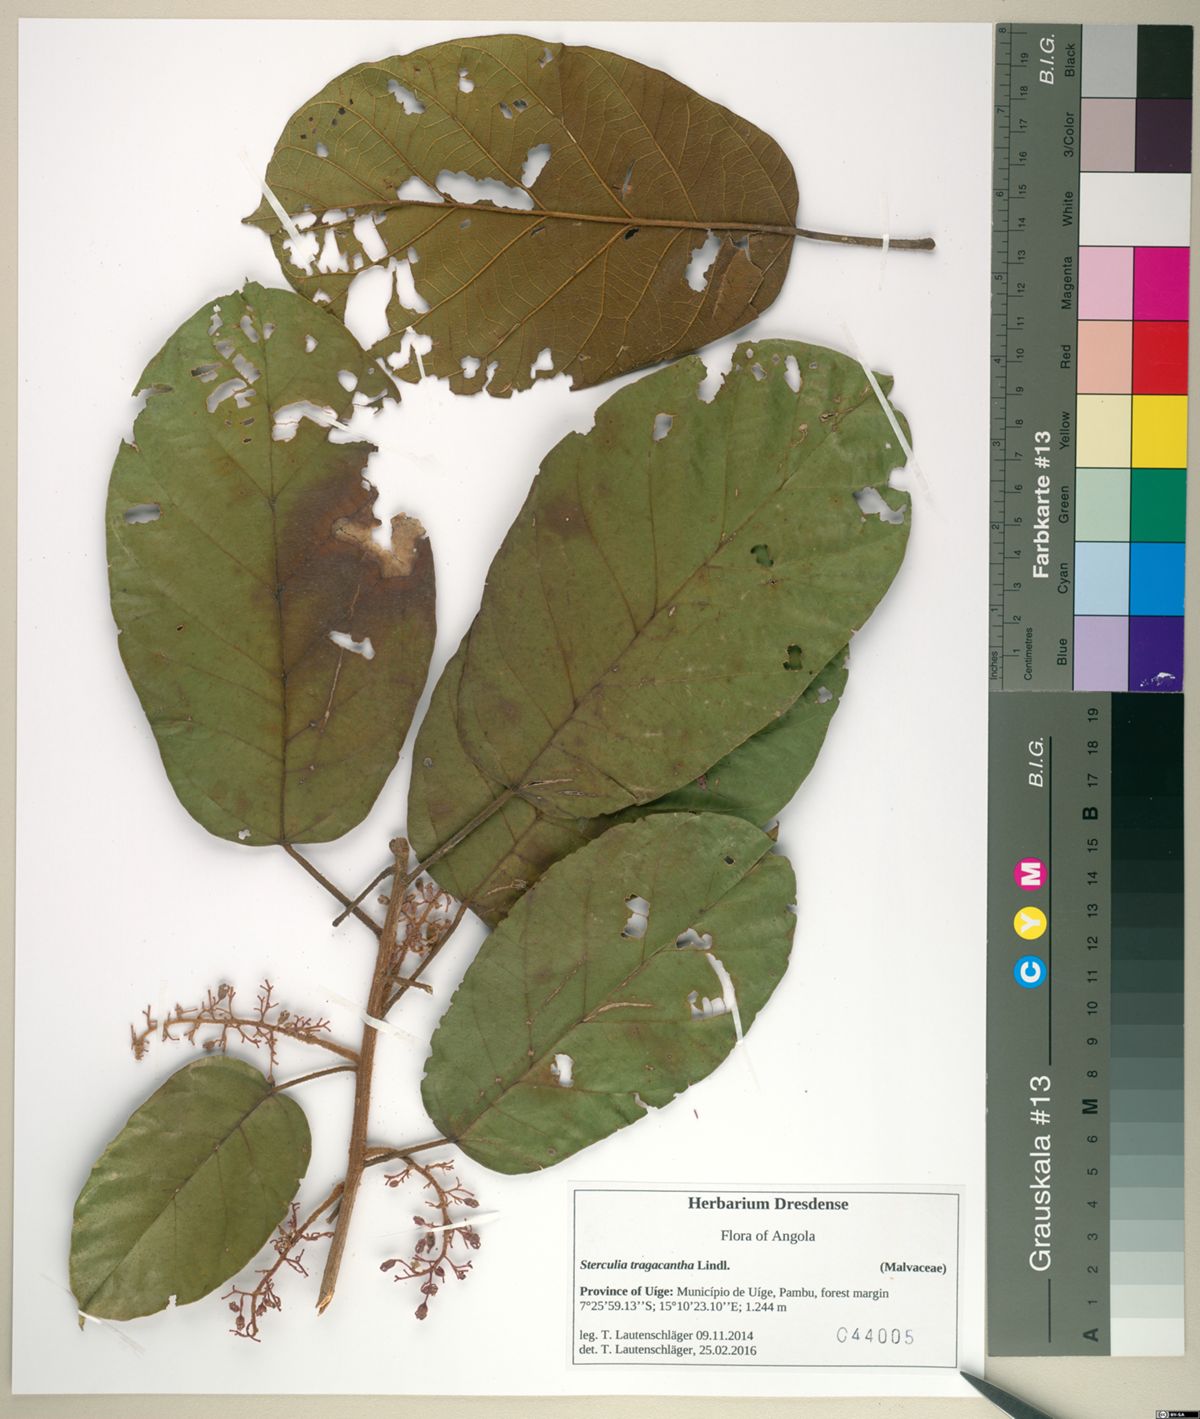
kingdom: Plantae
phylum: Tracheophyta
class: Magnoliopsida
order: Malvales
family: Malvaceae
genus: Sterculia
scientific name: Sterculia tragacantha
